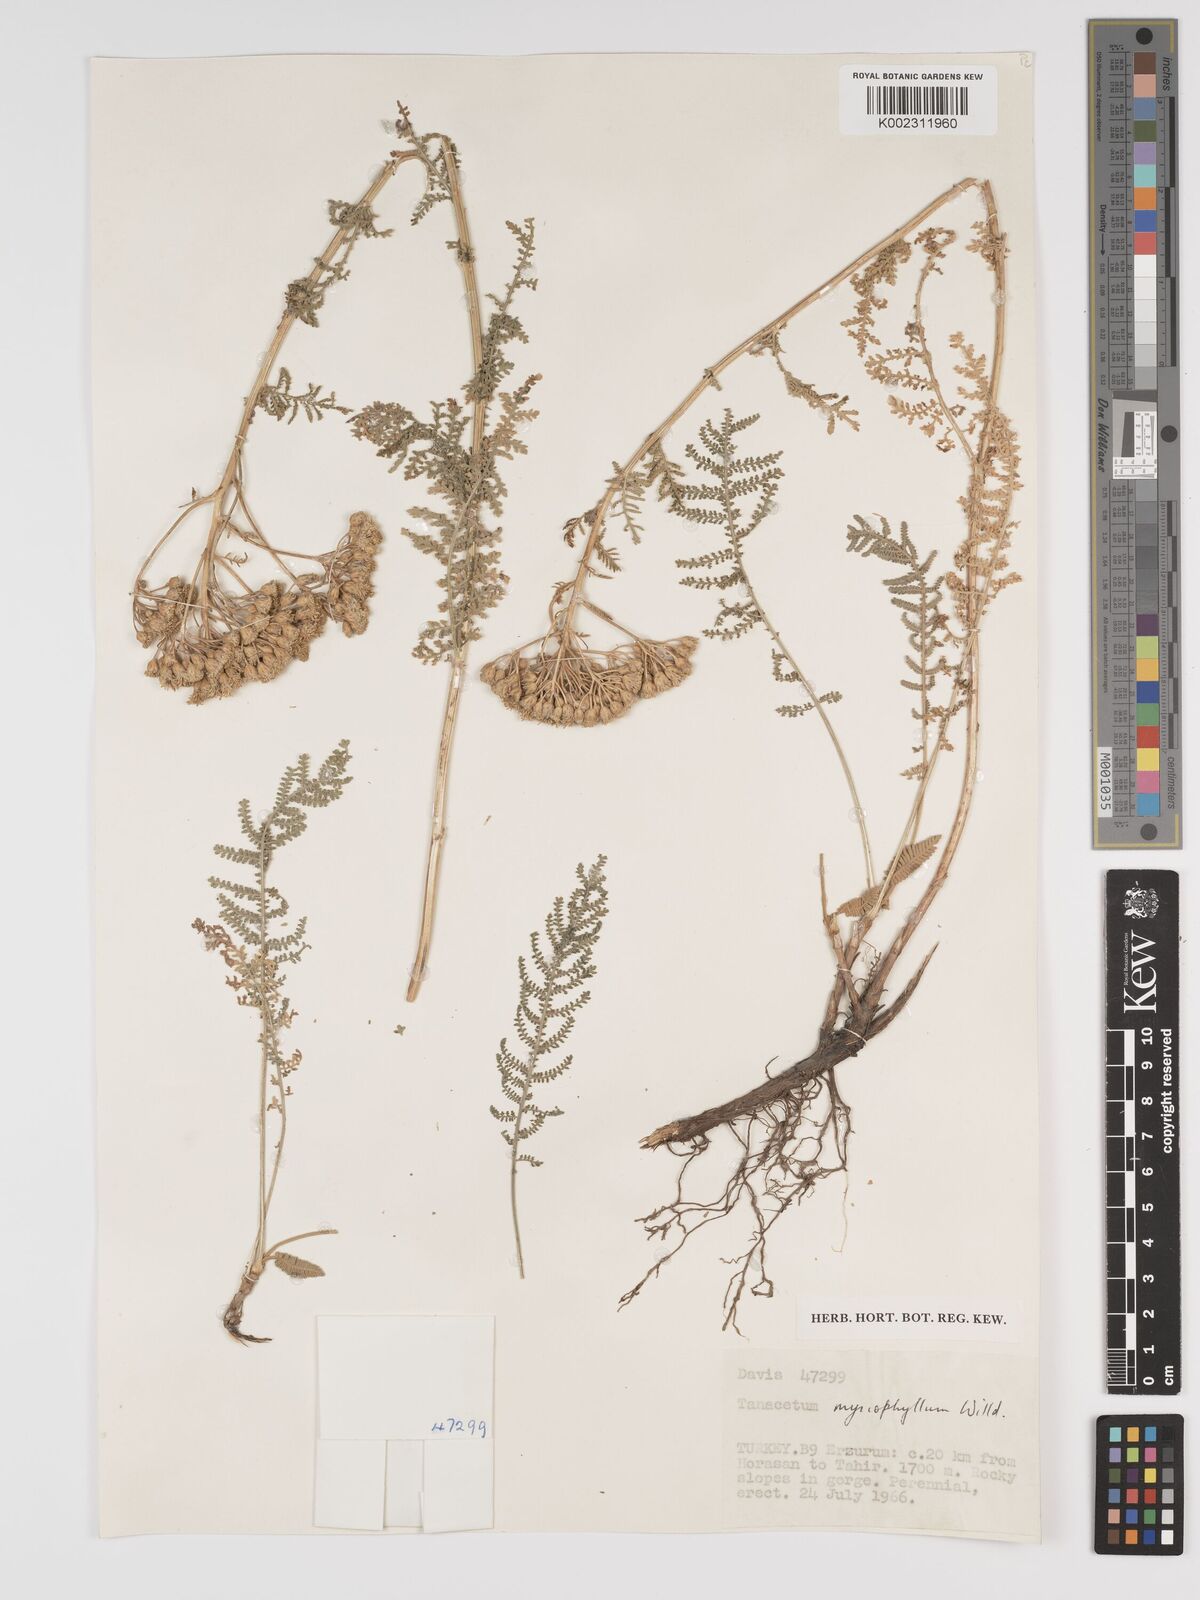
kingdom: Plantae
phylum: Tracheophyta
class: Magnoliopsida
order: Asterales
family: Asteraceae
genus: Tanacetum
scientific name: Tanacetum polycephalum
